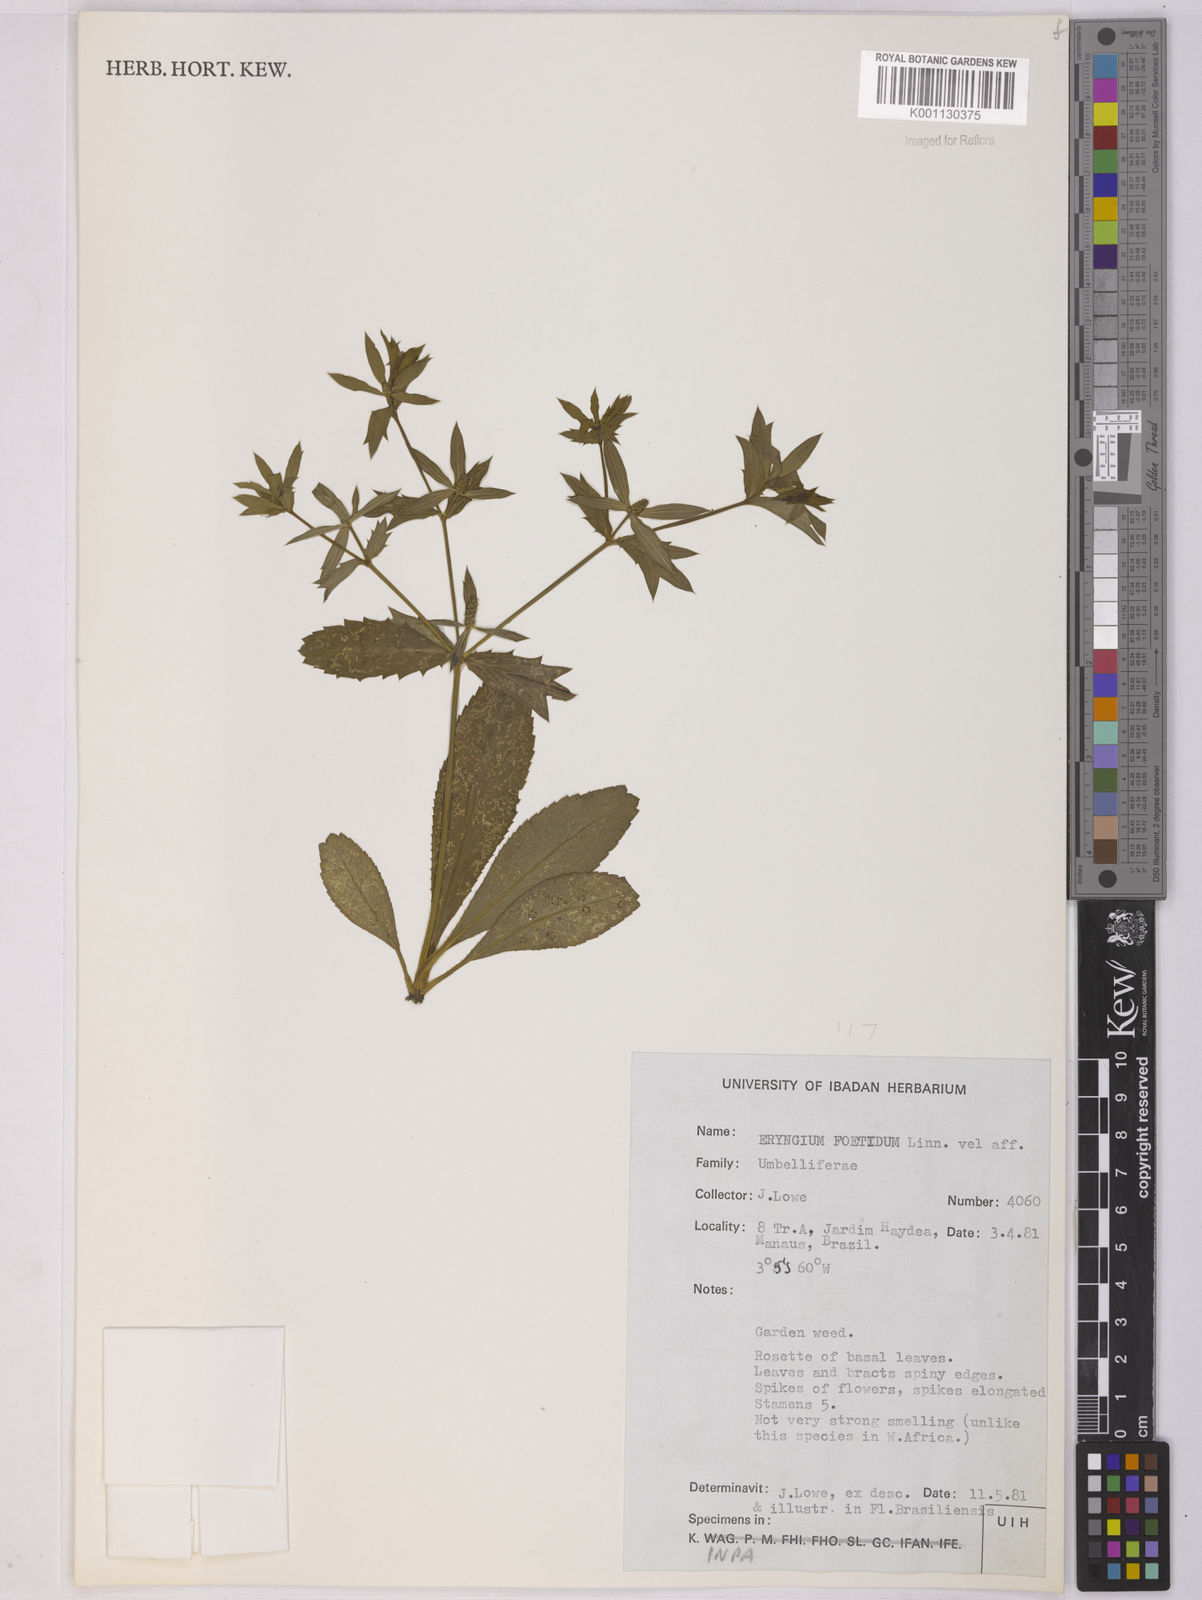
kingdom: Plantae
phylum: Tracheophyta
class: Magnoliopsida
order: Apiales
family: Apiaceae
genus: Eryngium
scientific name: Eryngium foetidum
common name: Fitweed
